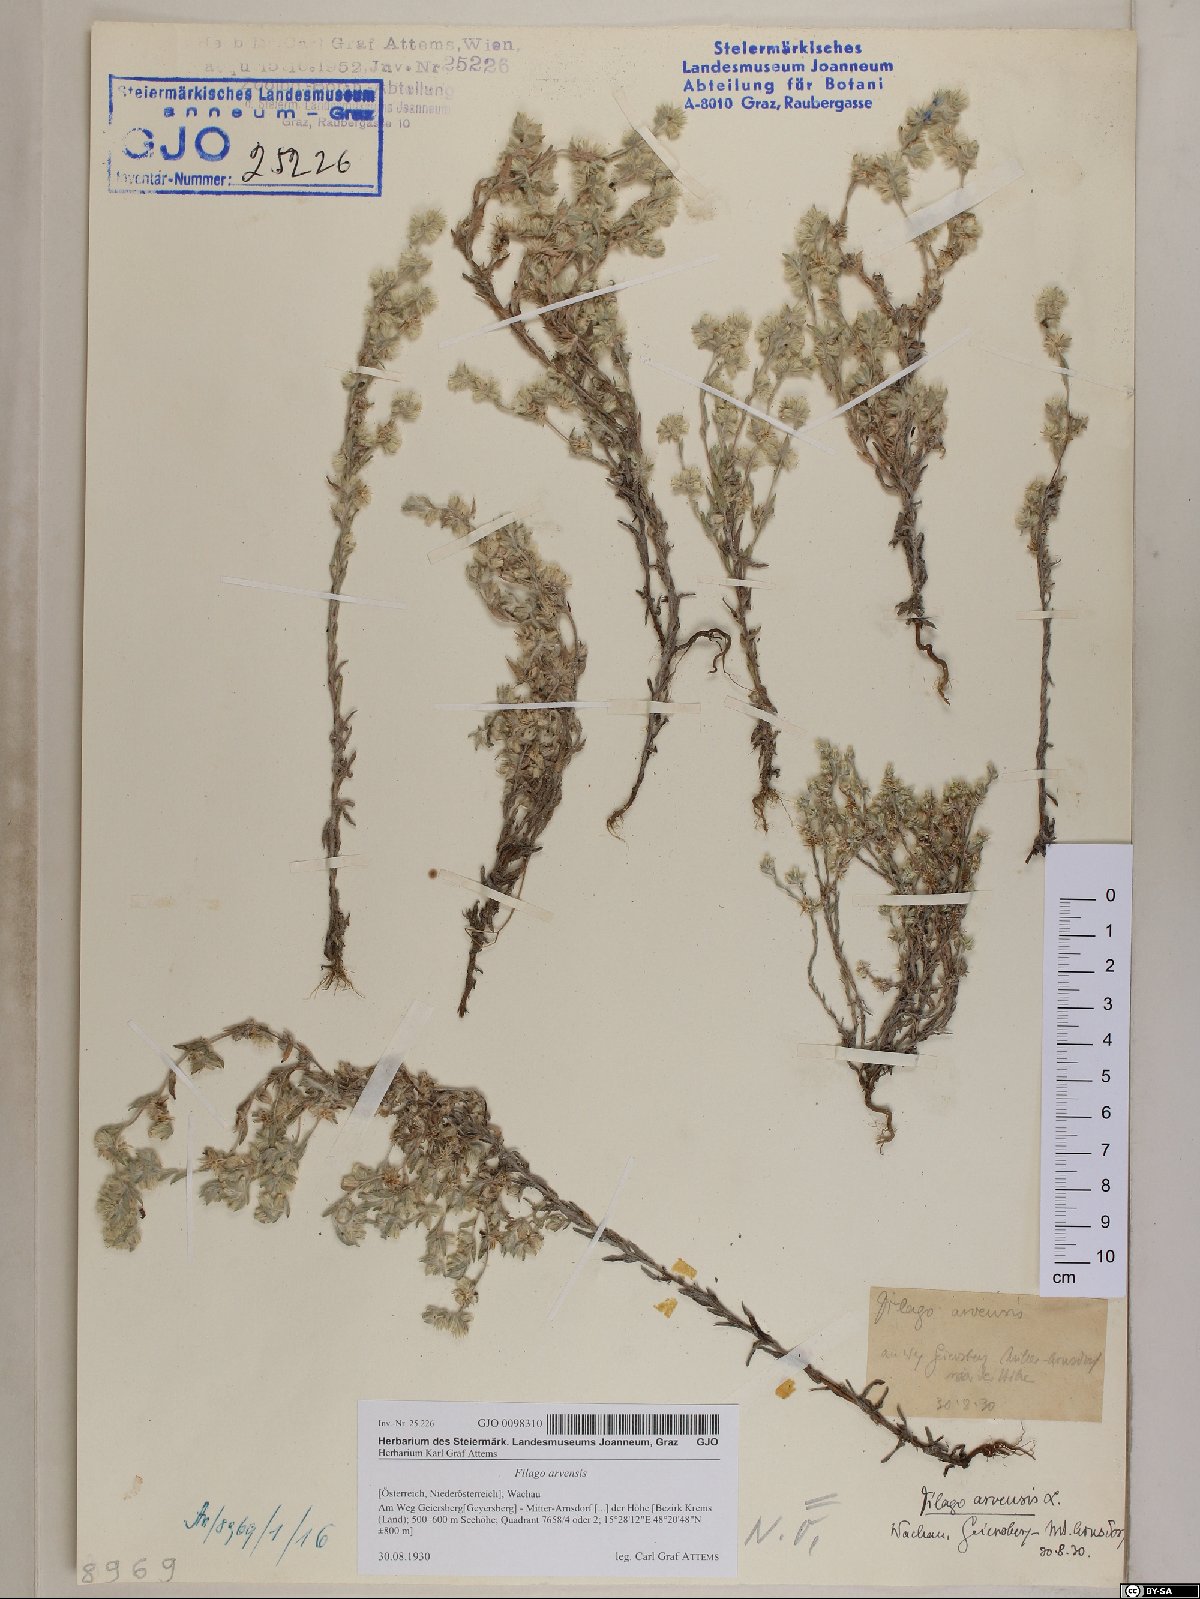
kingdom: Plantae
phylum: Tracheophyta
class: Magnoliopsida
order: Asterales
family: Asteraceae
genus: Filago
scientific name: Filago arvensis
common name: Field cudweed
